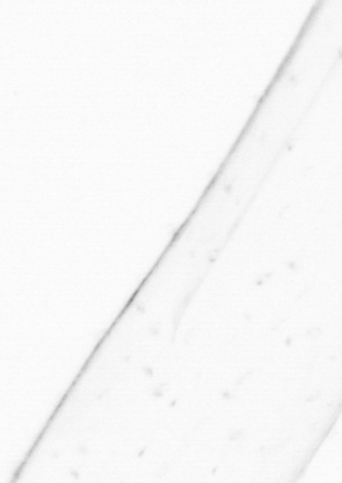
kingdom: Animalia
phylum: Chaetognatha
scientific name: Chaetognatha
